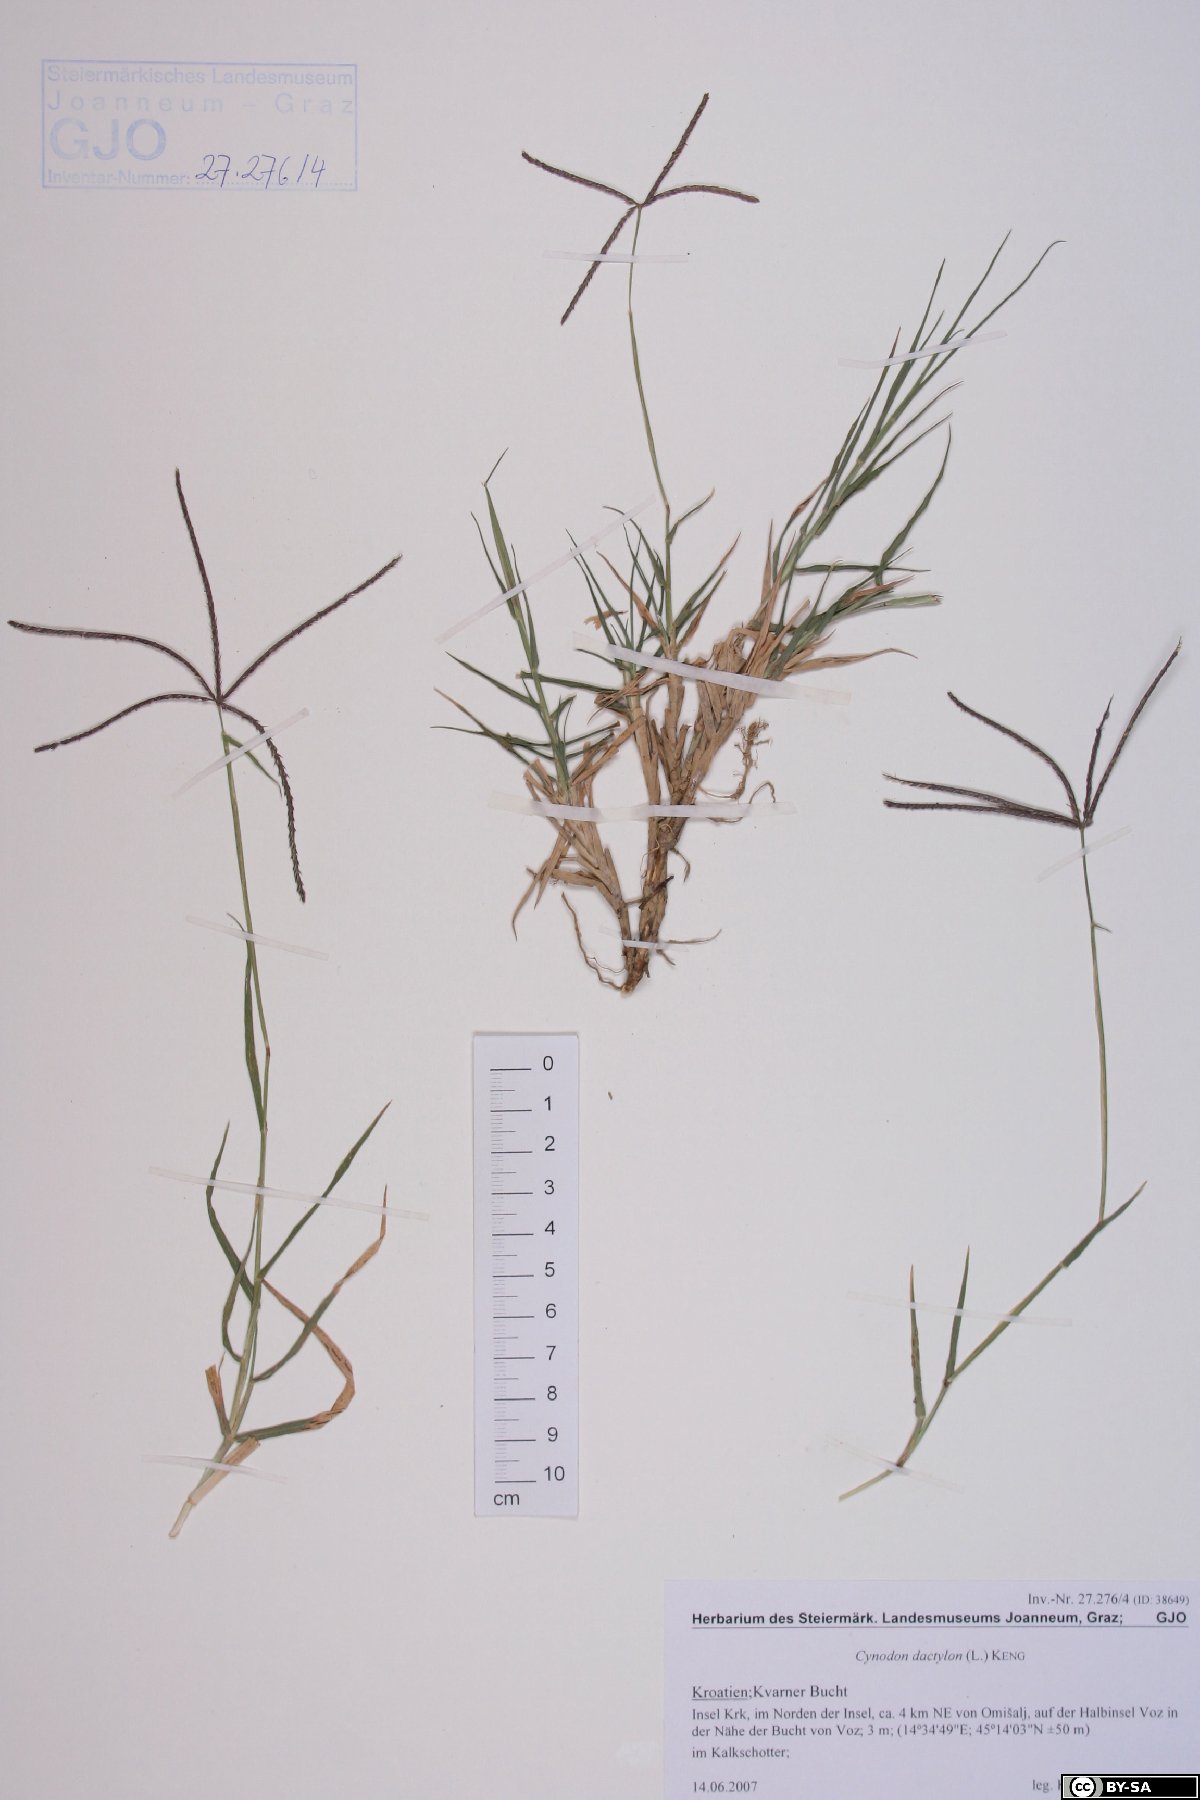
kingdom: Plantae
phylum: Tracheophyta
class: Liliopsida
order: Poales
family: Poaceae
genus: Cynodon
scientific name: Cynodon dactylon
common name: Bermuda grass
